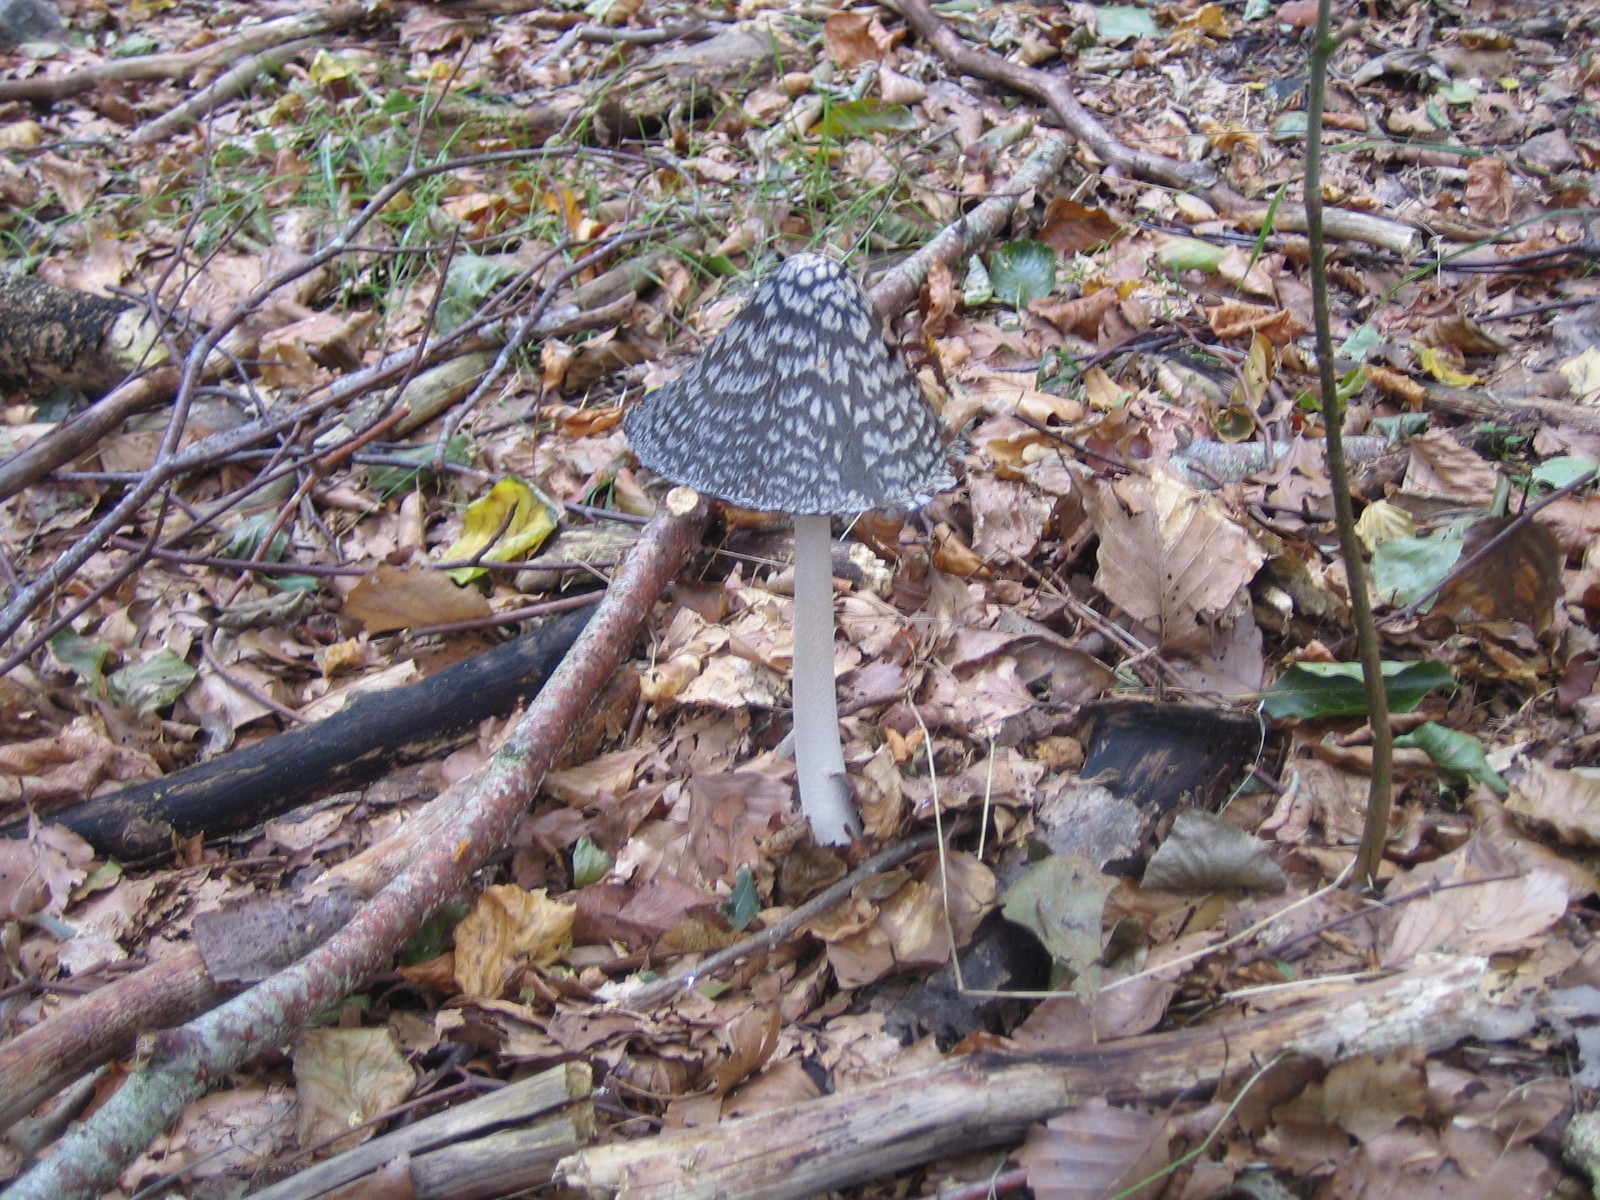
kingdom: Fungi
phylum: Basidiomycota
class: Agaricomycetes
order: Agaricales
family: Psathyrellaceae
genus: Coprinopsis
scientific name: Coprinopsis picacea
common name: skade-blækhat
